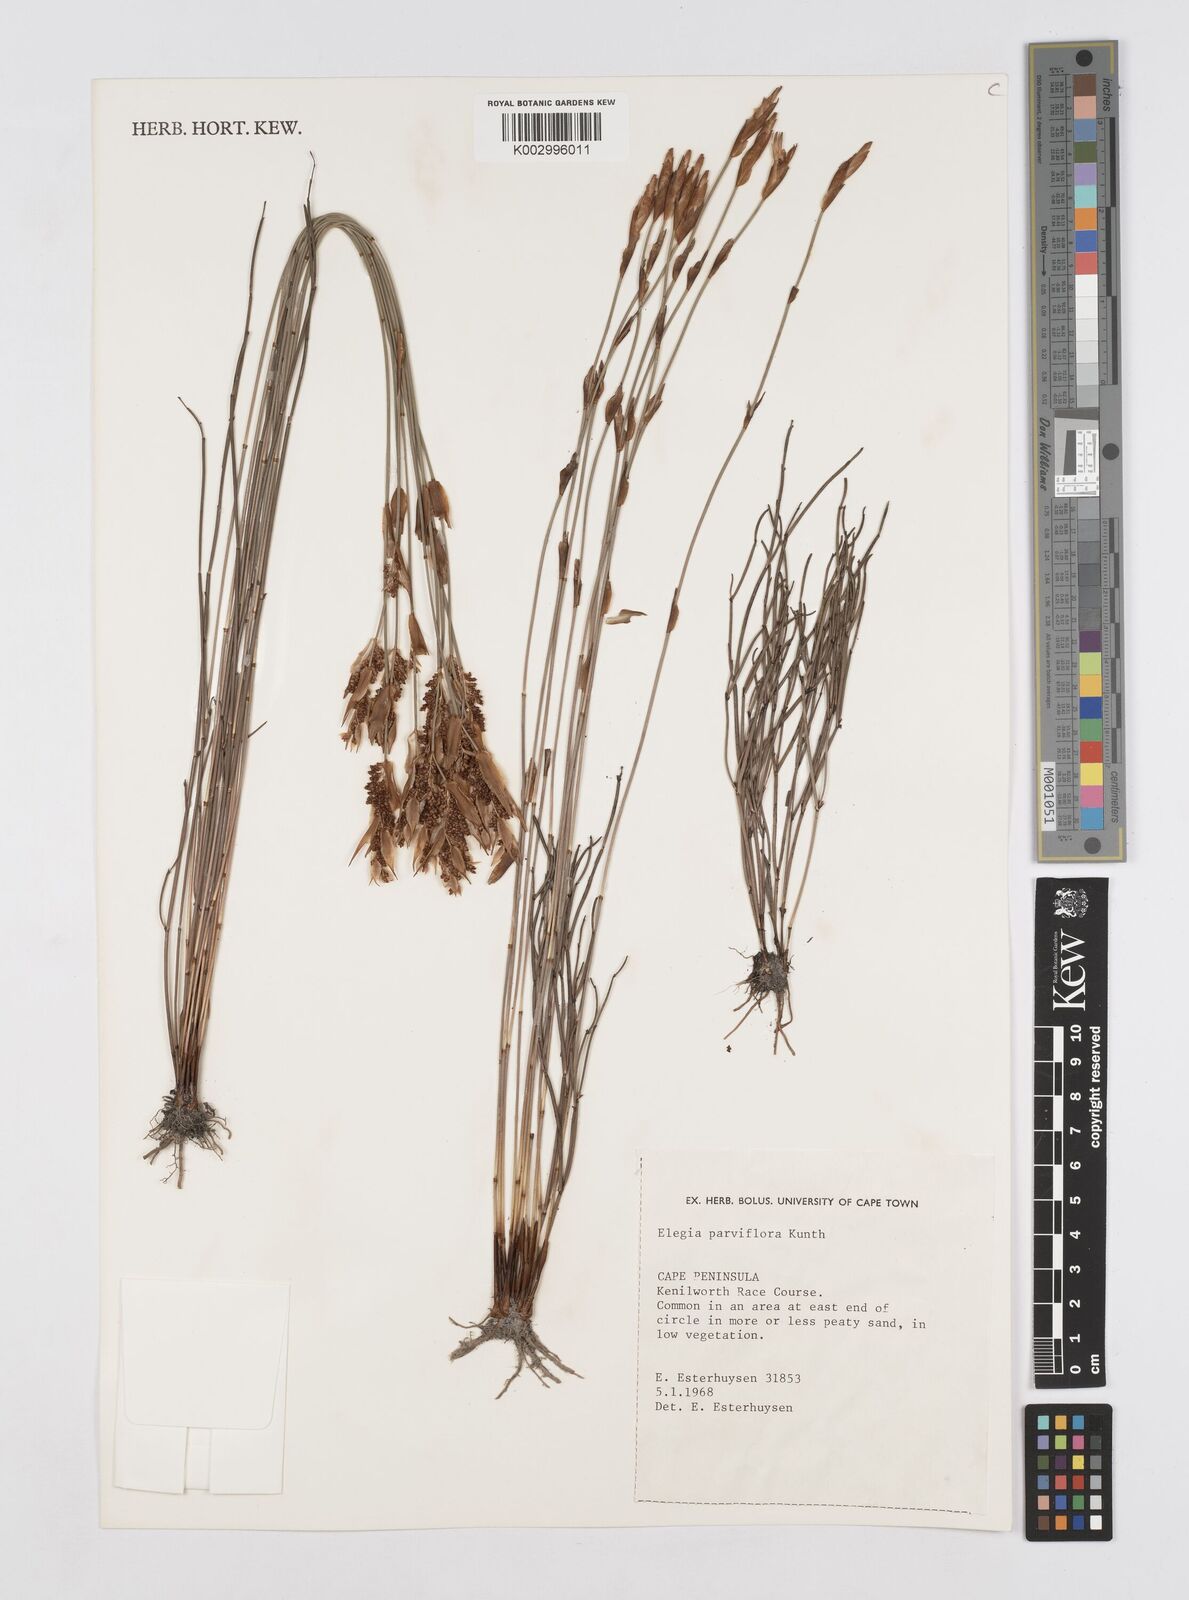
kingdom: Plantae
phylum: Tracheophyta
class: Liliopsida
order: Poales
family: Restionaceae
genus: Cannomois
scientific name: Cannomois parviflora
